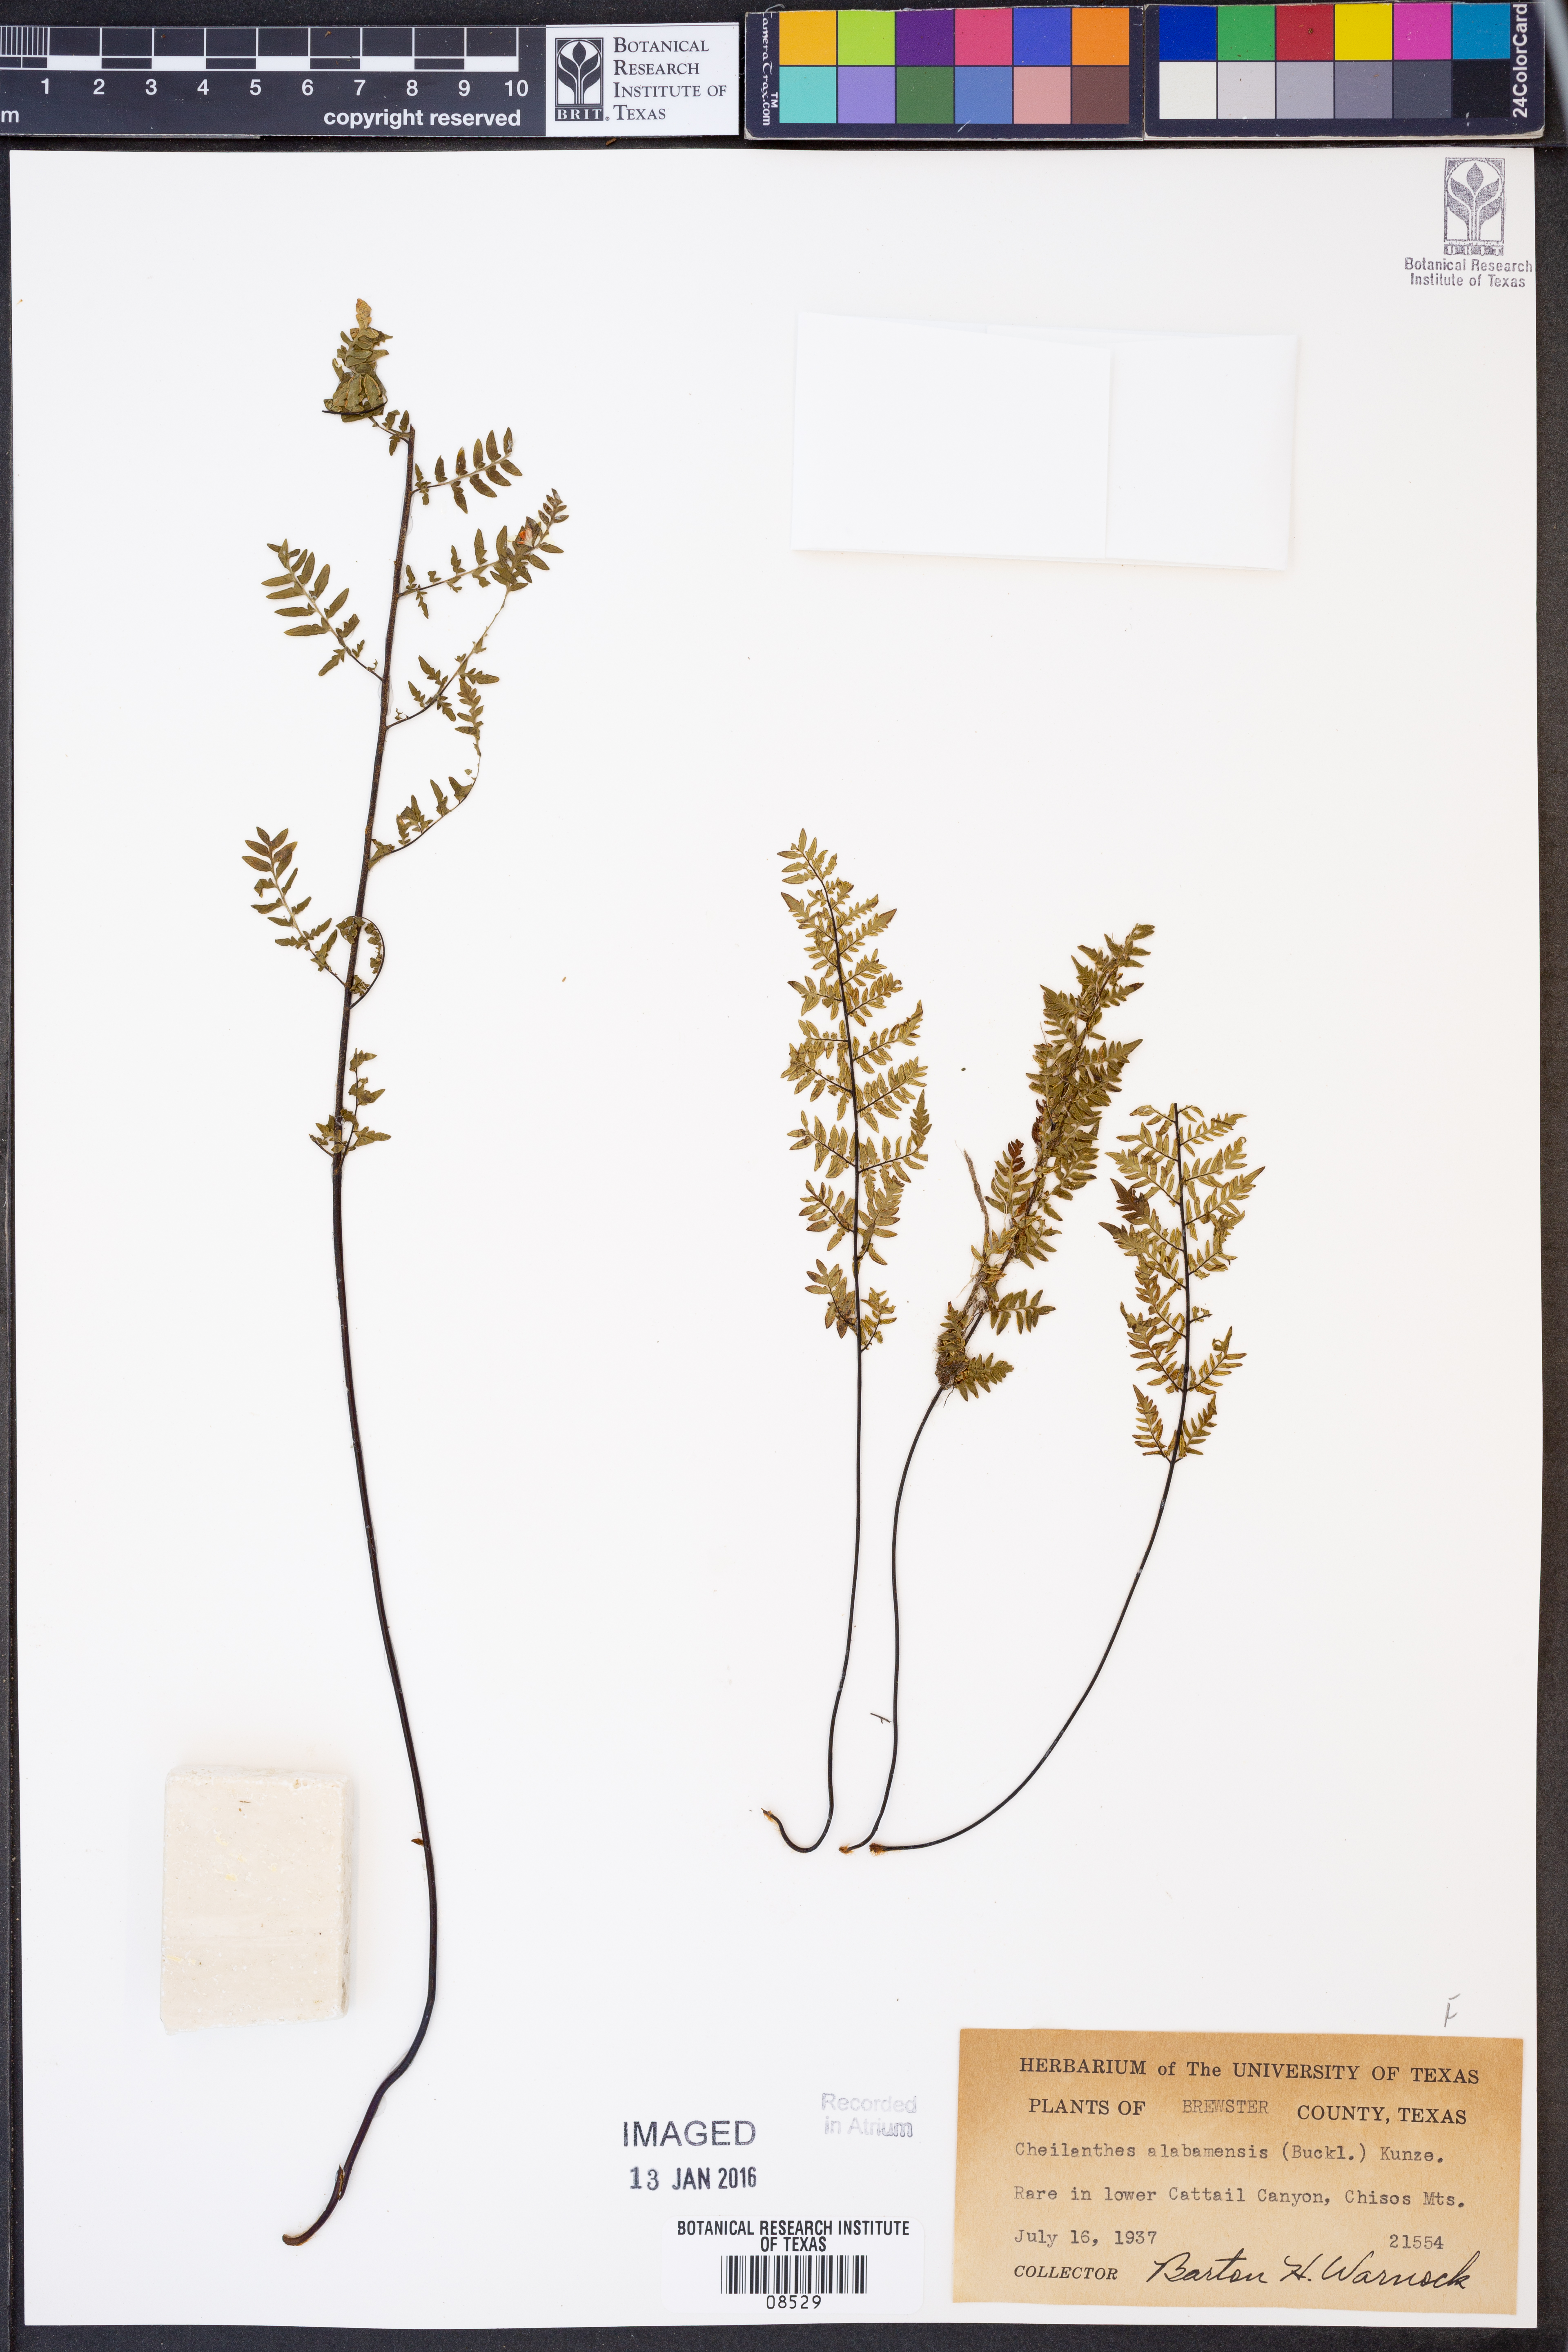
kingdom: Plantae
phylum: Tracheophyta
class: Polypodiopsida
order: Polypodiales
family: Pteridaceae
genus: Myriopteris
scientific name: Myriopteris alabamensis
